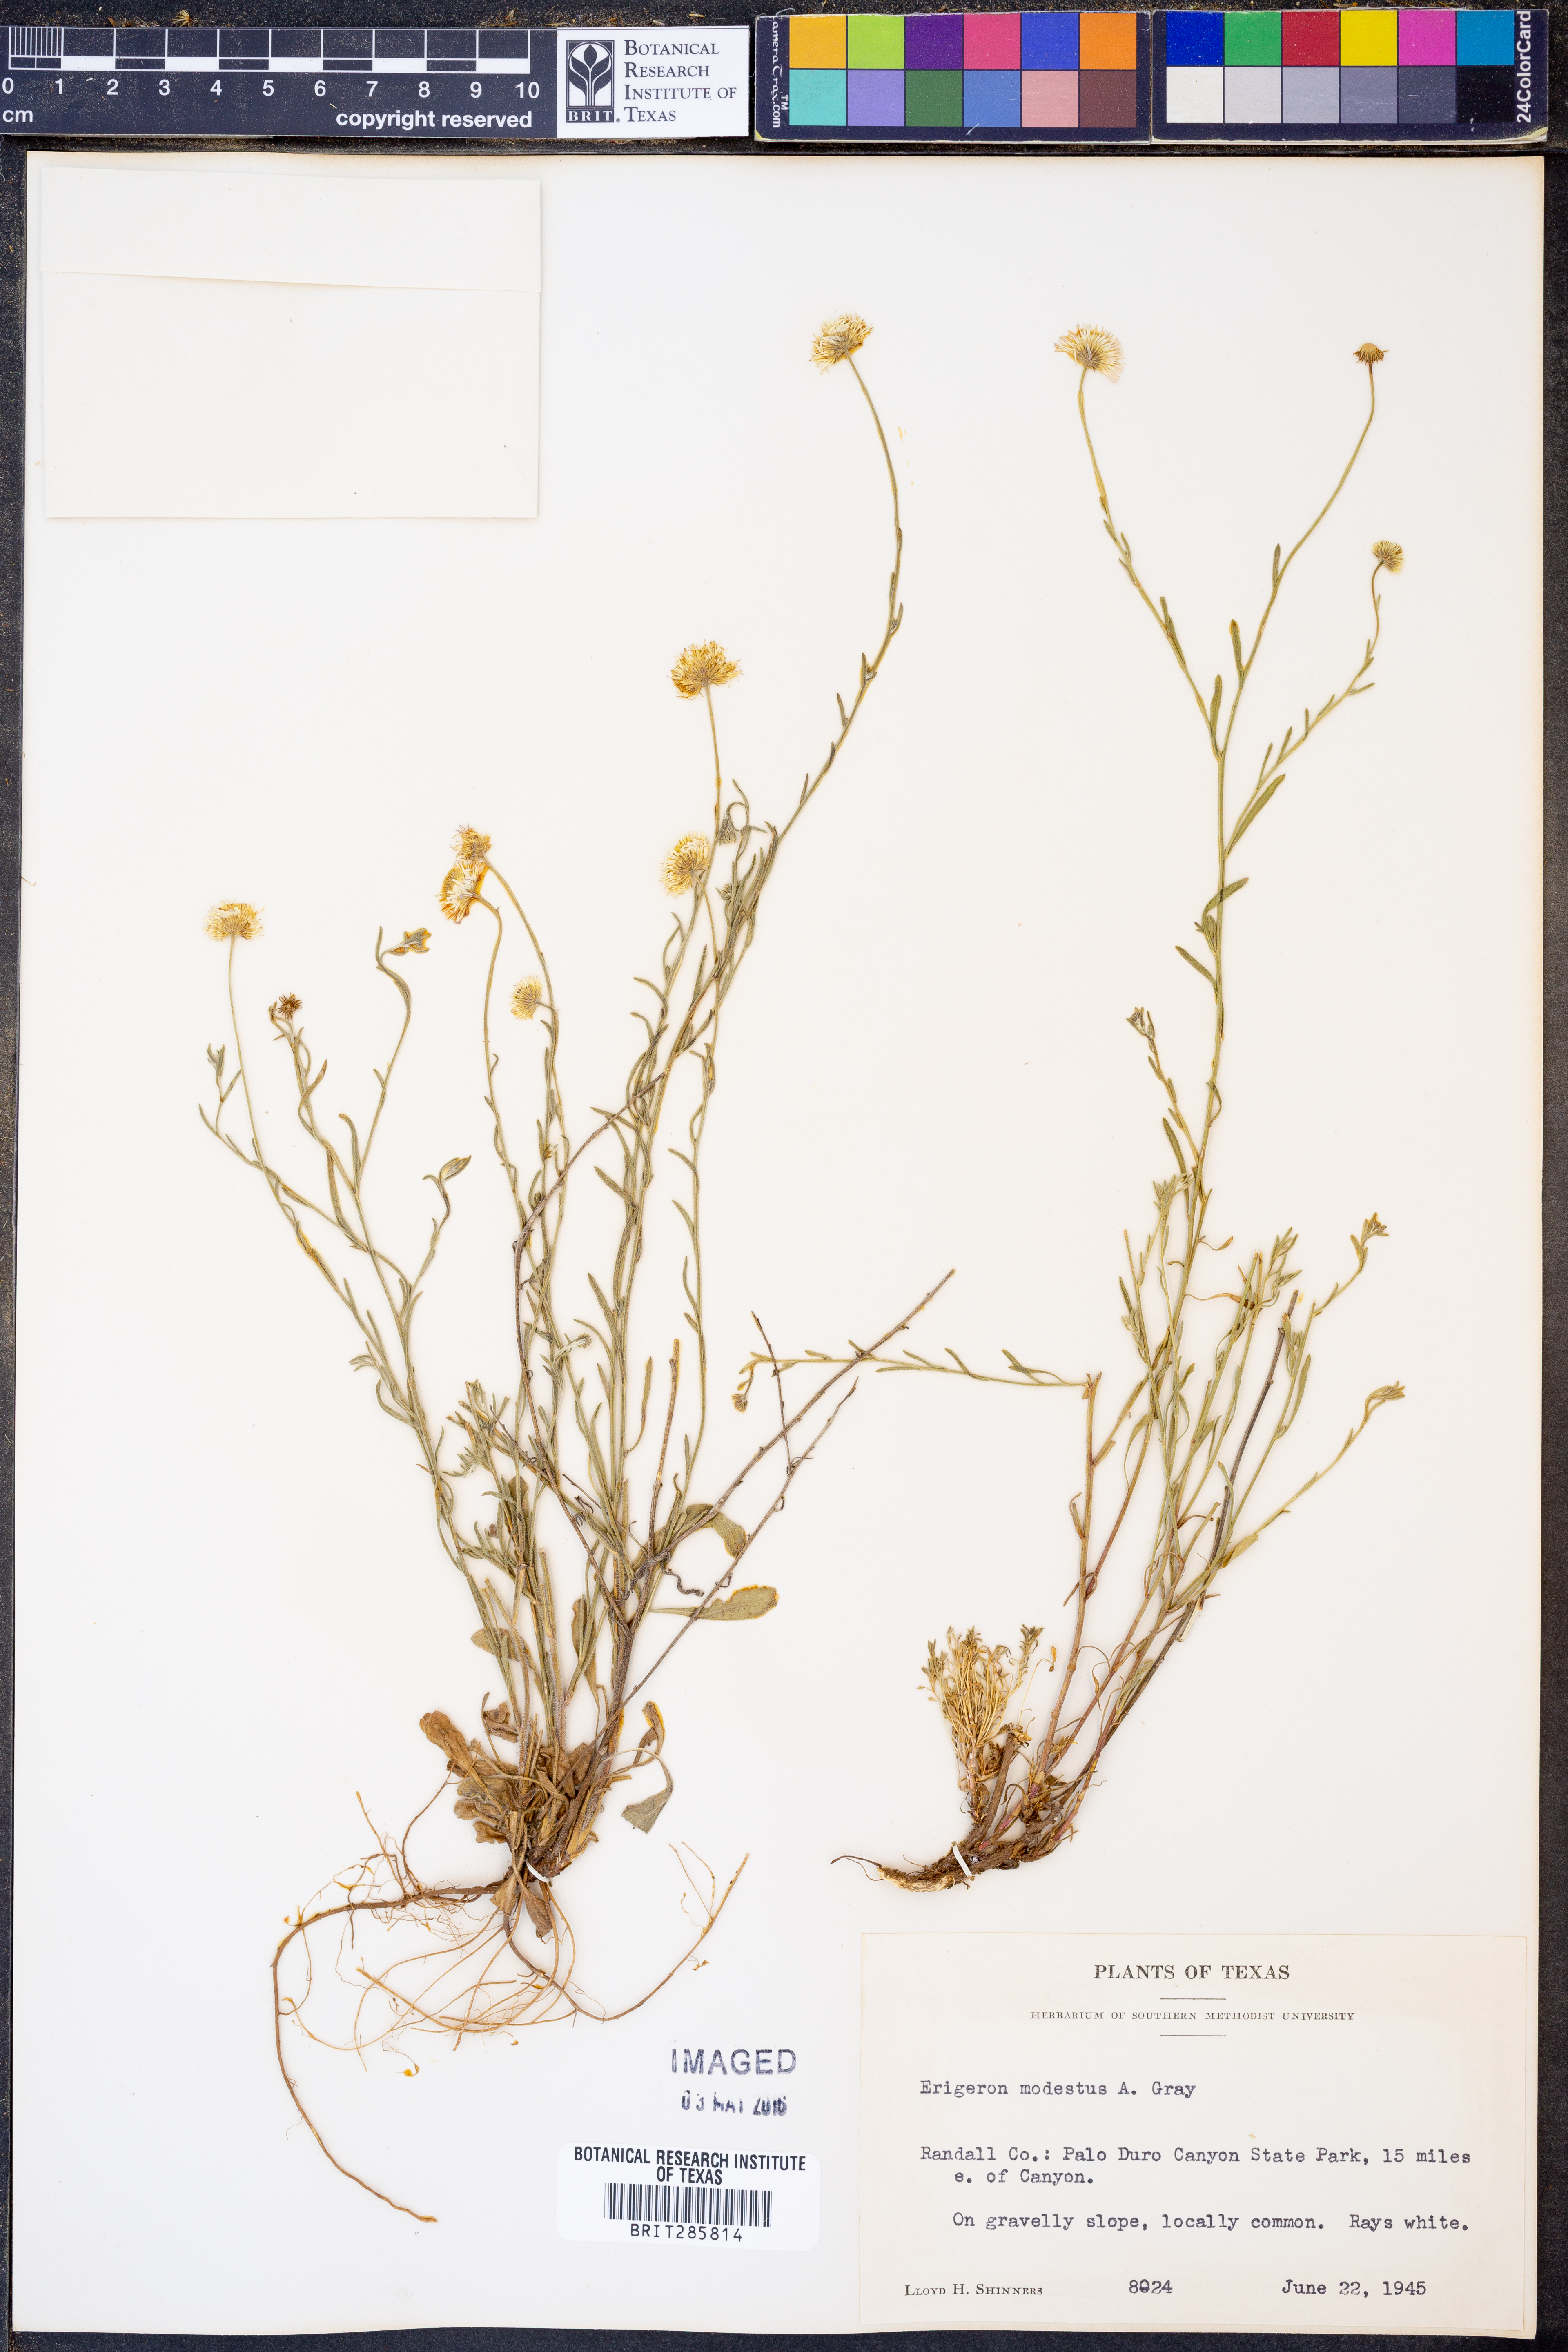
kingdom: Plantae
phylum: Tracheophyta
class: Magnoliopsida
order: Asterales
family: Asteraceae
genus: Erigeron
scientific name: Erigeron modestus
